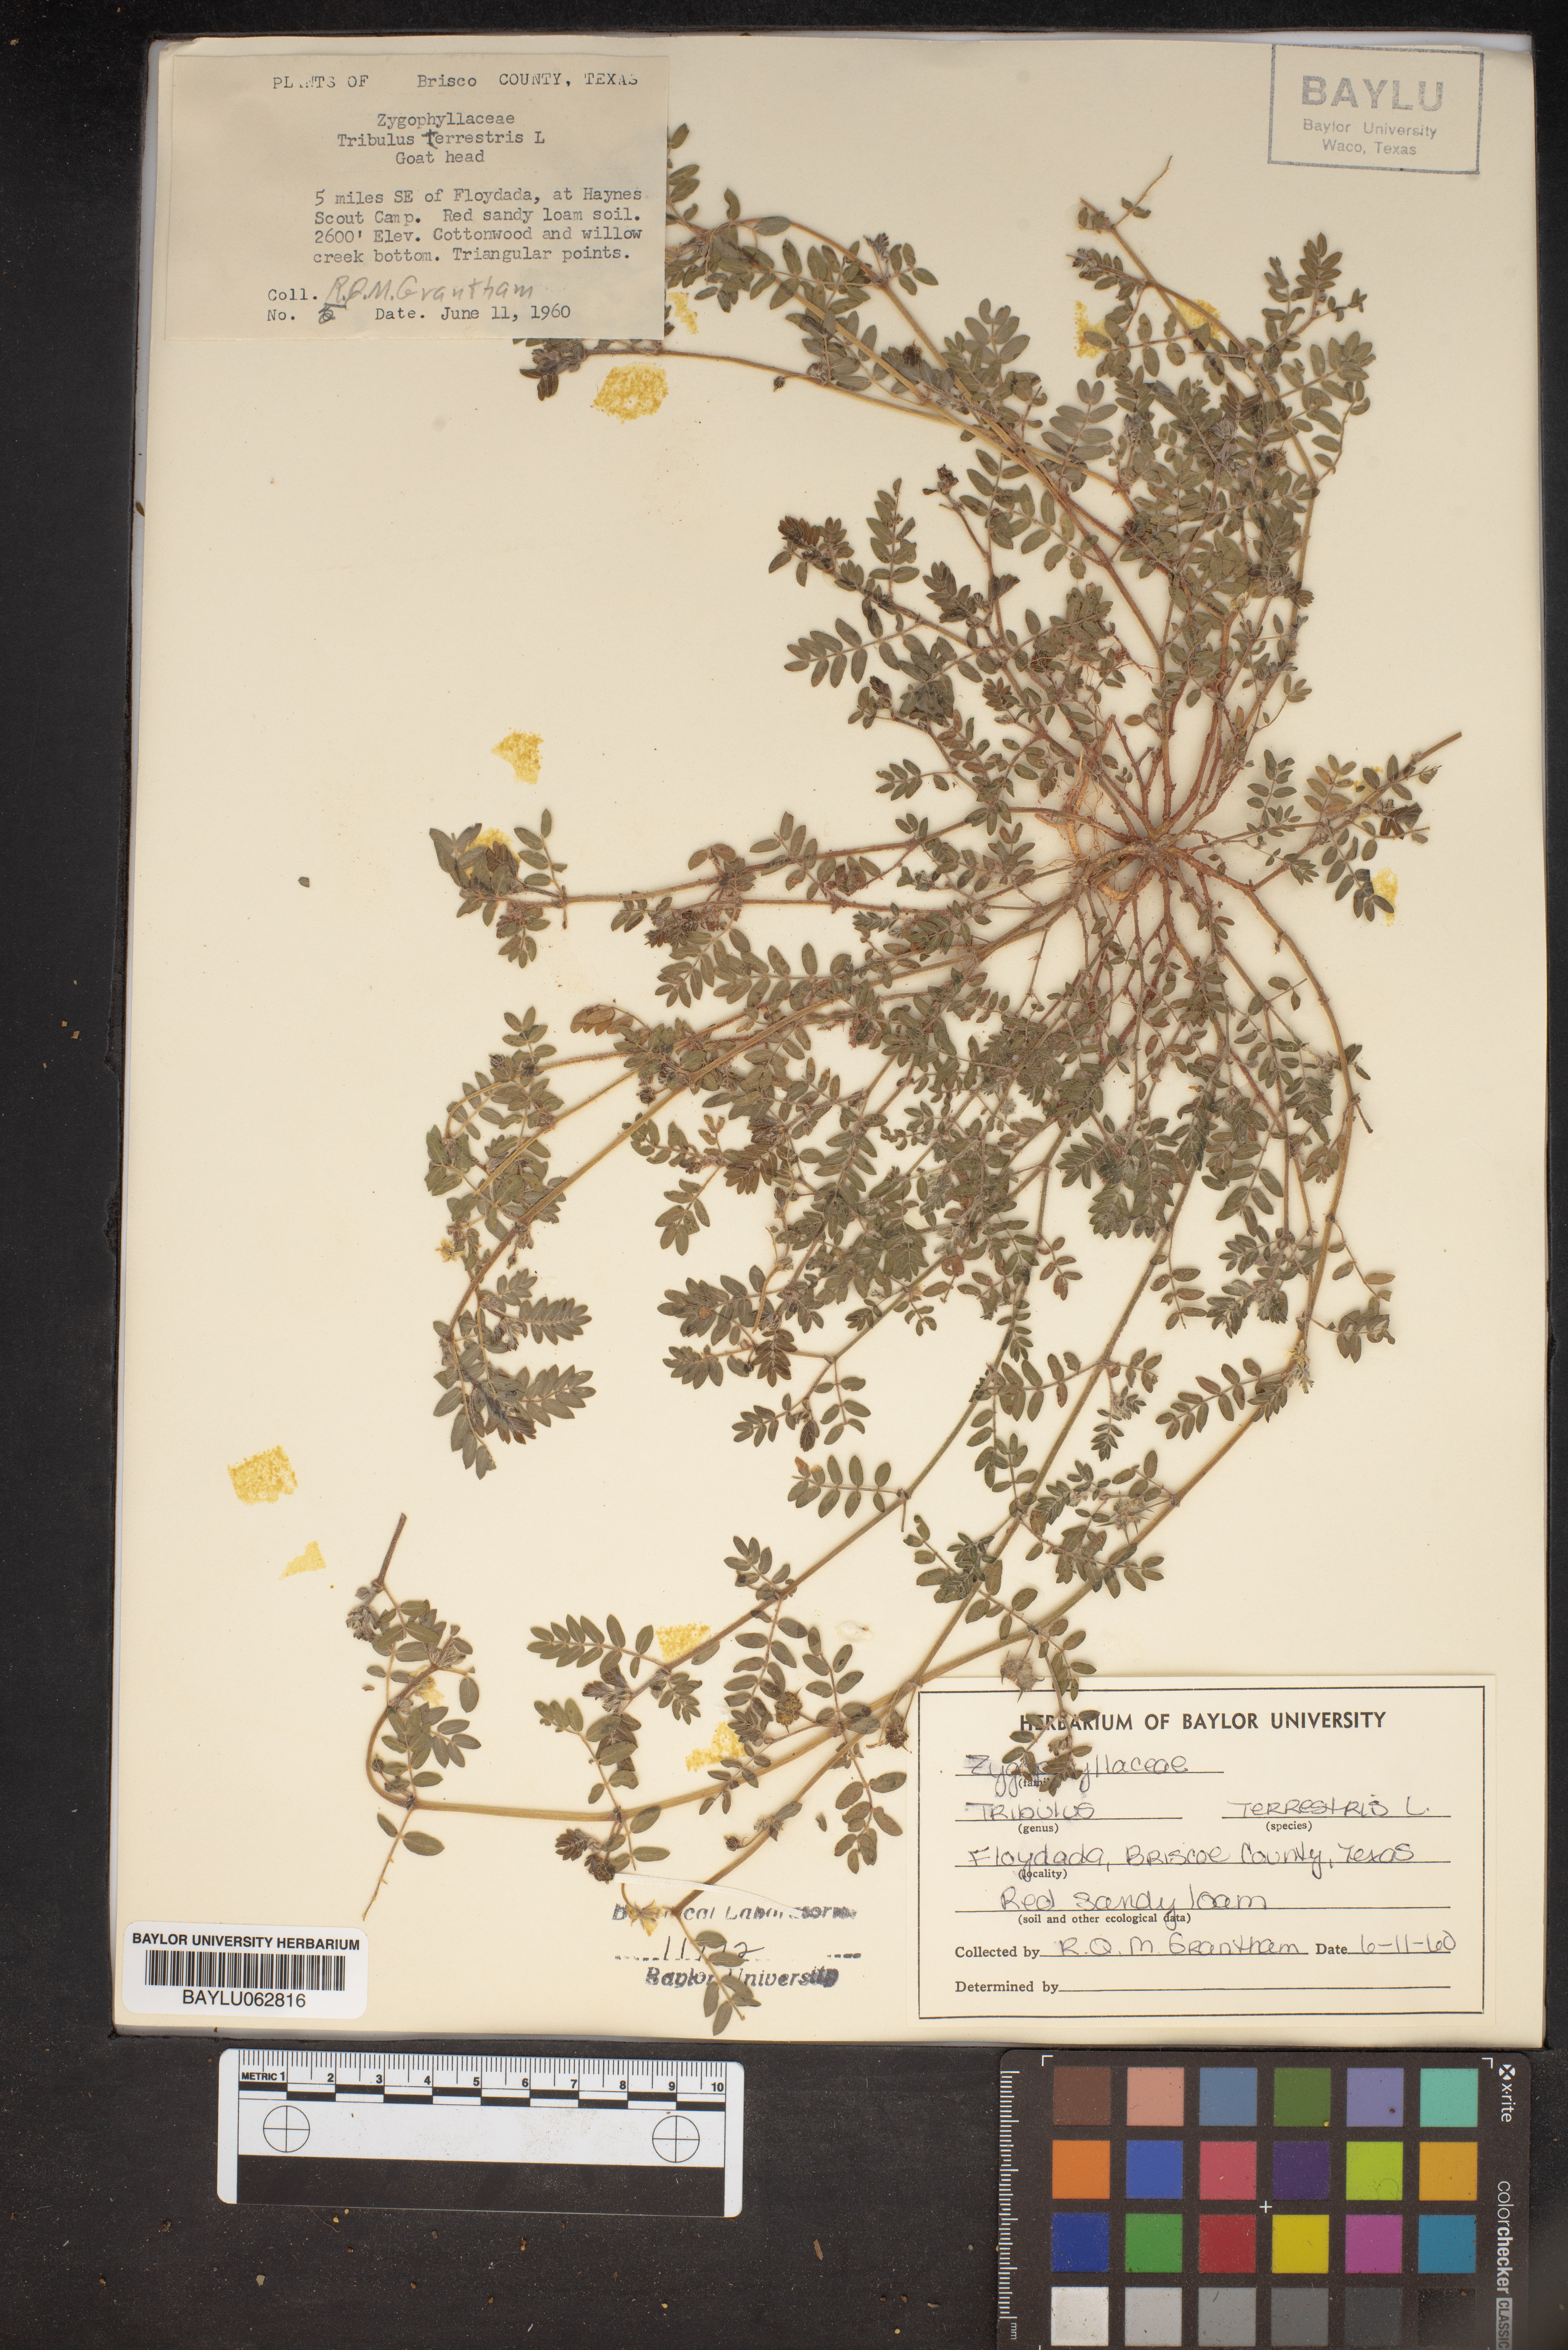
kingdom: Plantae
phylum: Tracheophyta
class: Magnoliopsida
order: Zygophyllales
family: Zygophyllaceae
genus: Tribulus
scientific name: Tribulus terrestris
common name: Puncturevine
